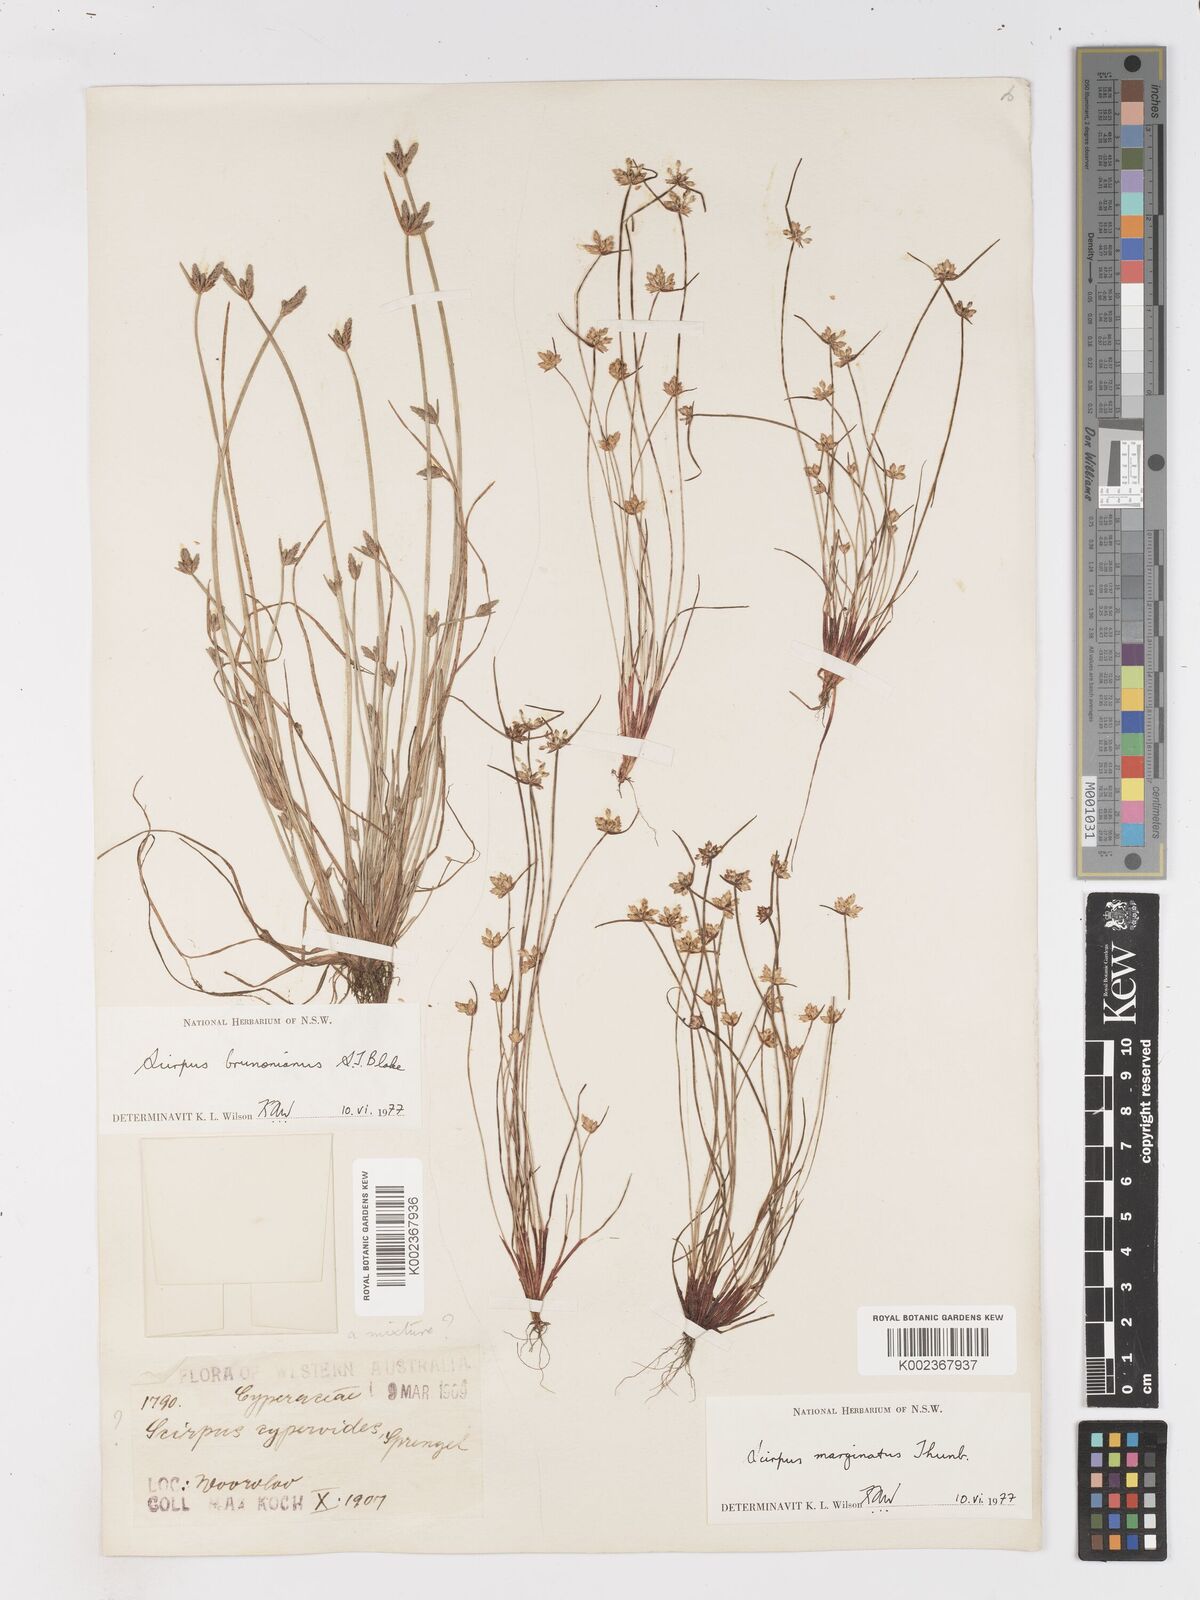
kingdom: Plantae
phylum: Tracheophyta
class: Liliopsida
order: Poales
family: Cyperaceae
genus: Isolepis
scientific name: Isolepis cyperoides
